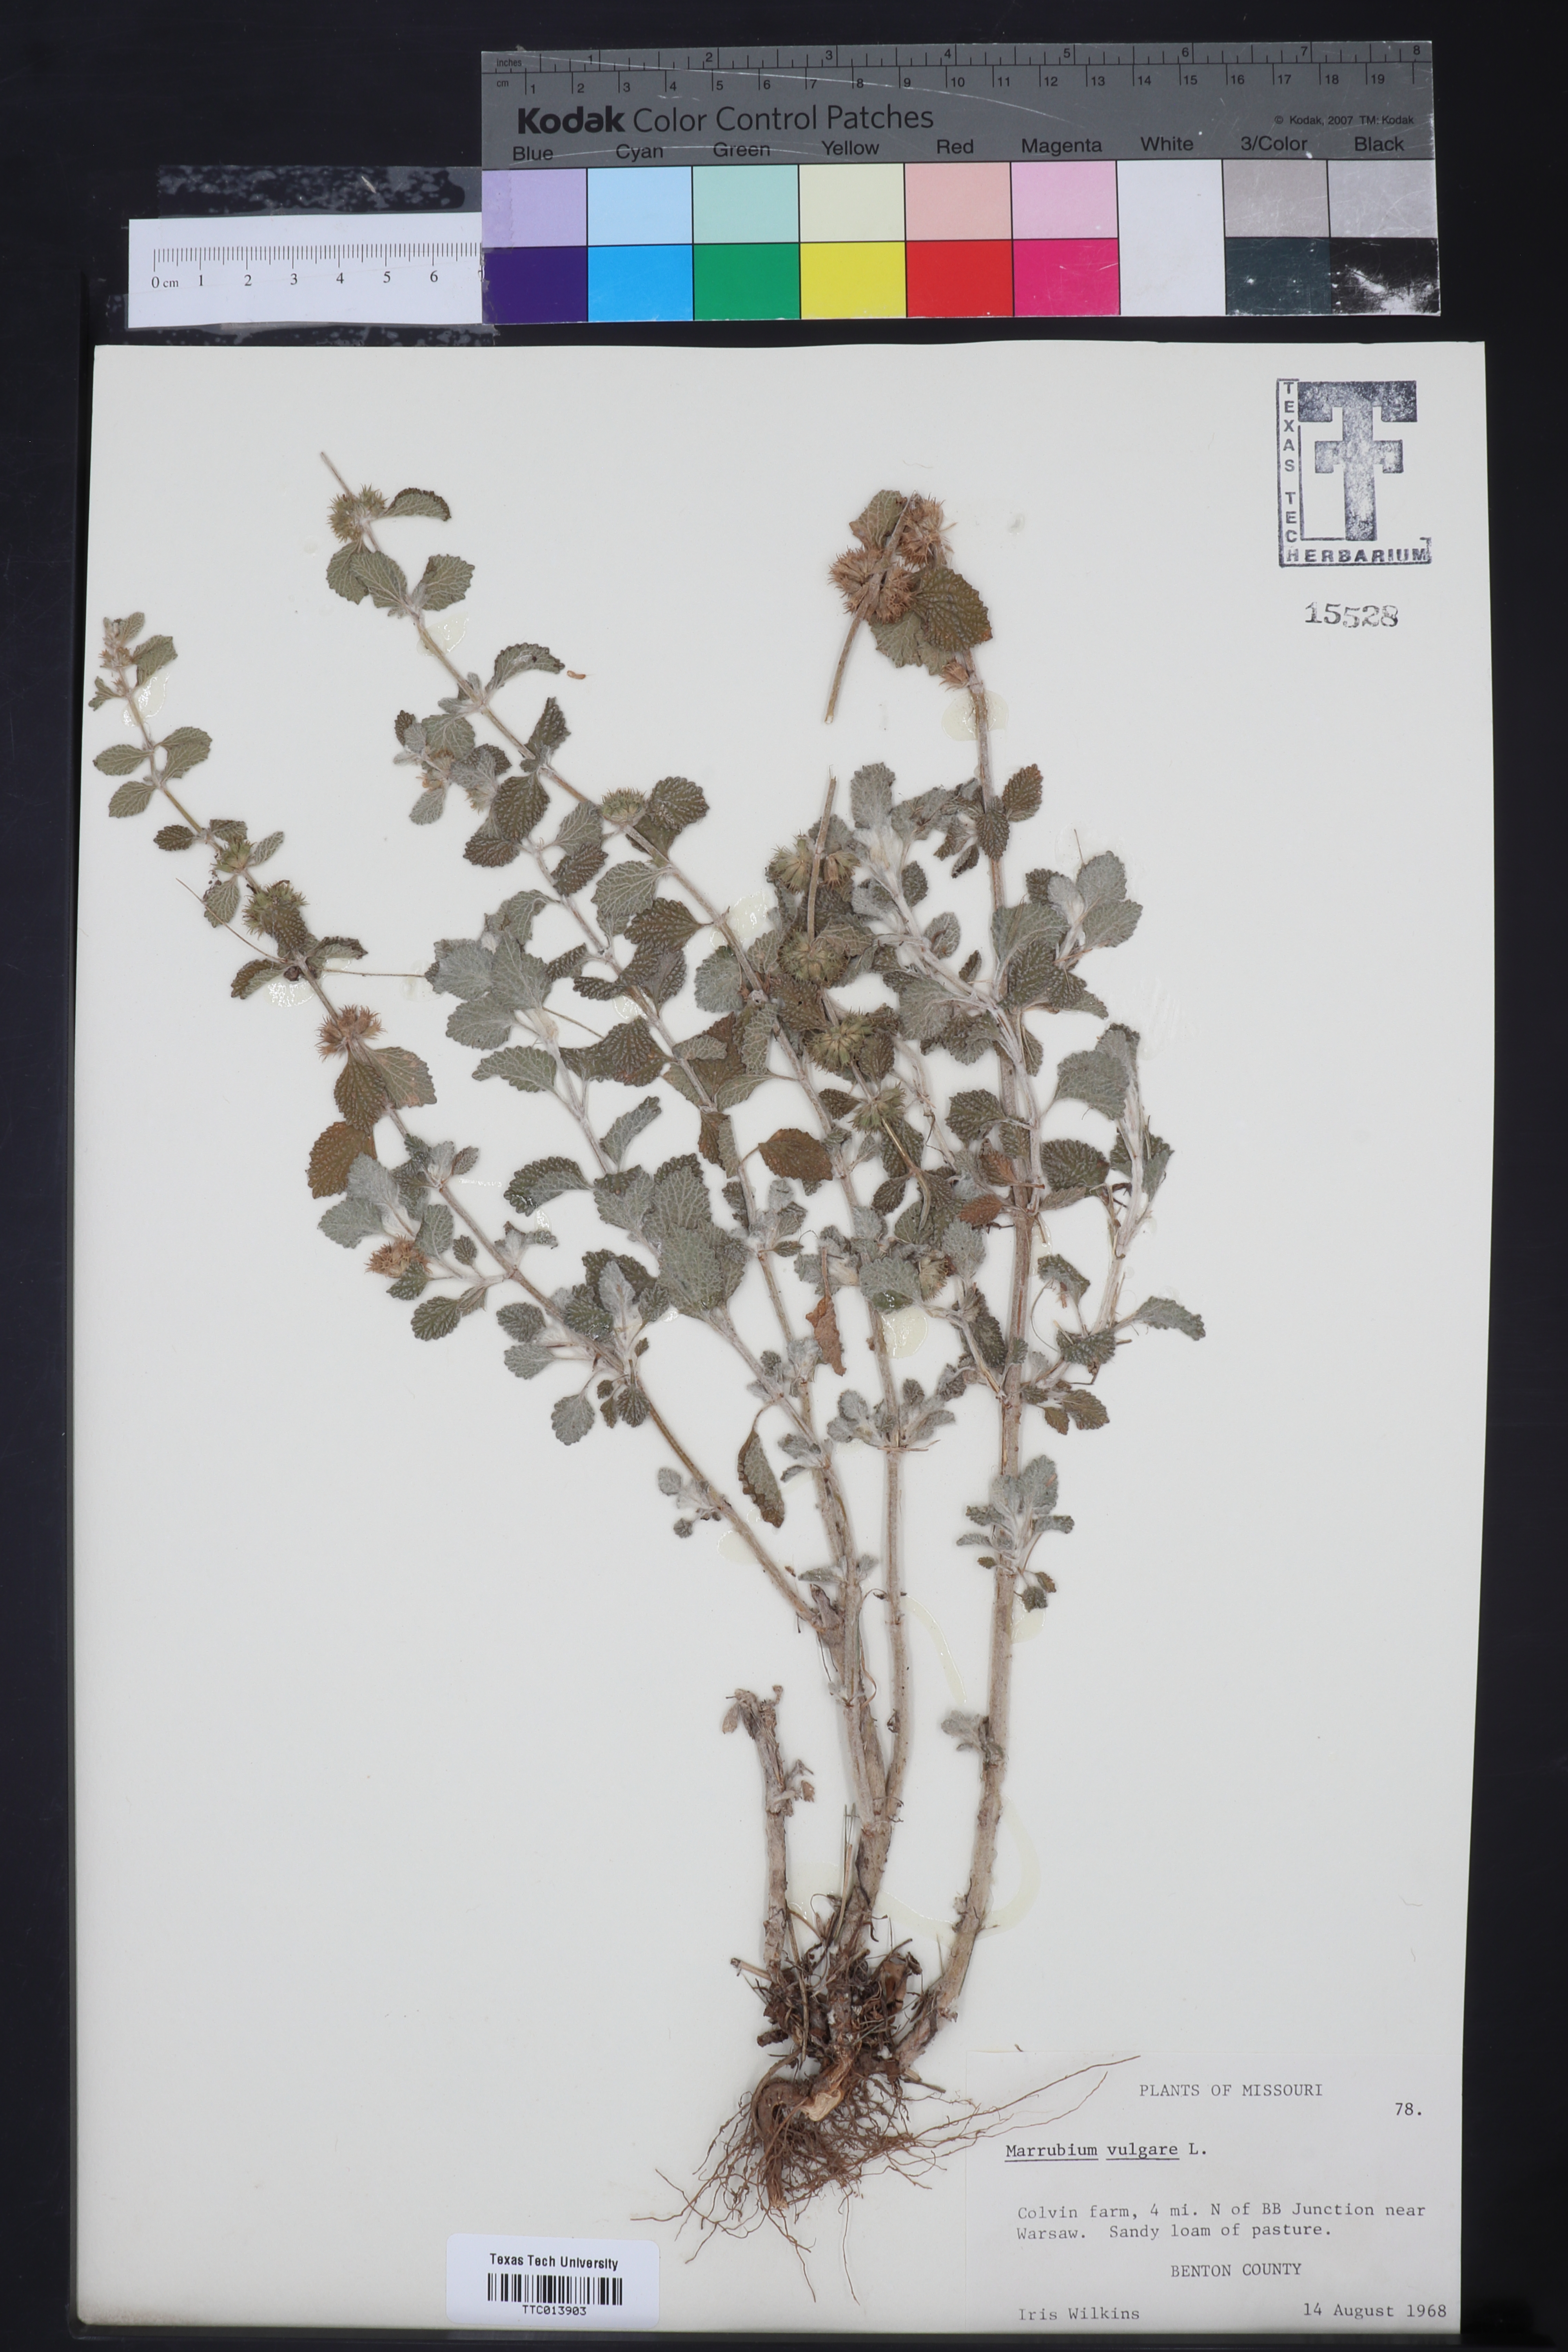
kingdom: Plantae
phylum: Tracheophyta
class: Magnoliopsida
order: Lamiales
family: Lamiaceae
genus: Marrubium
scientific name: Marrubium vulgare
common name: Horehound
